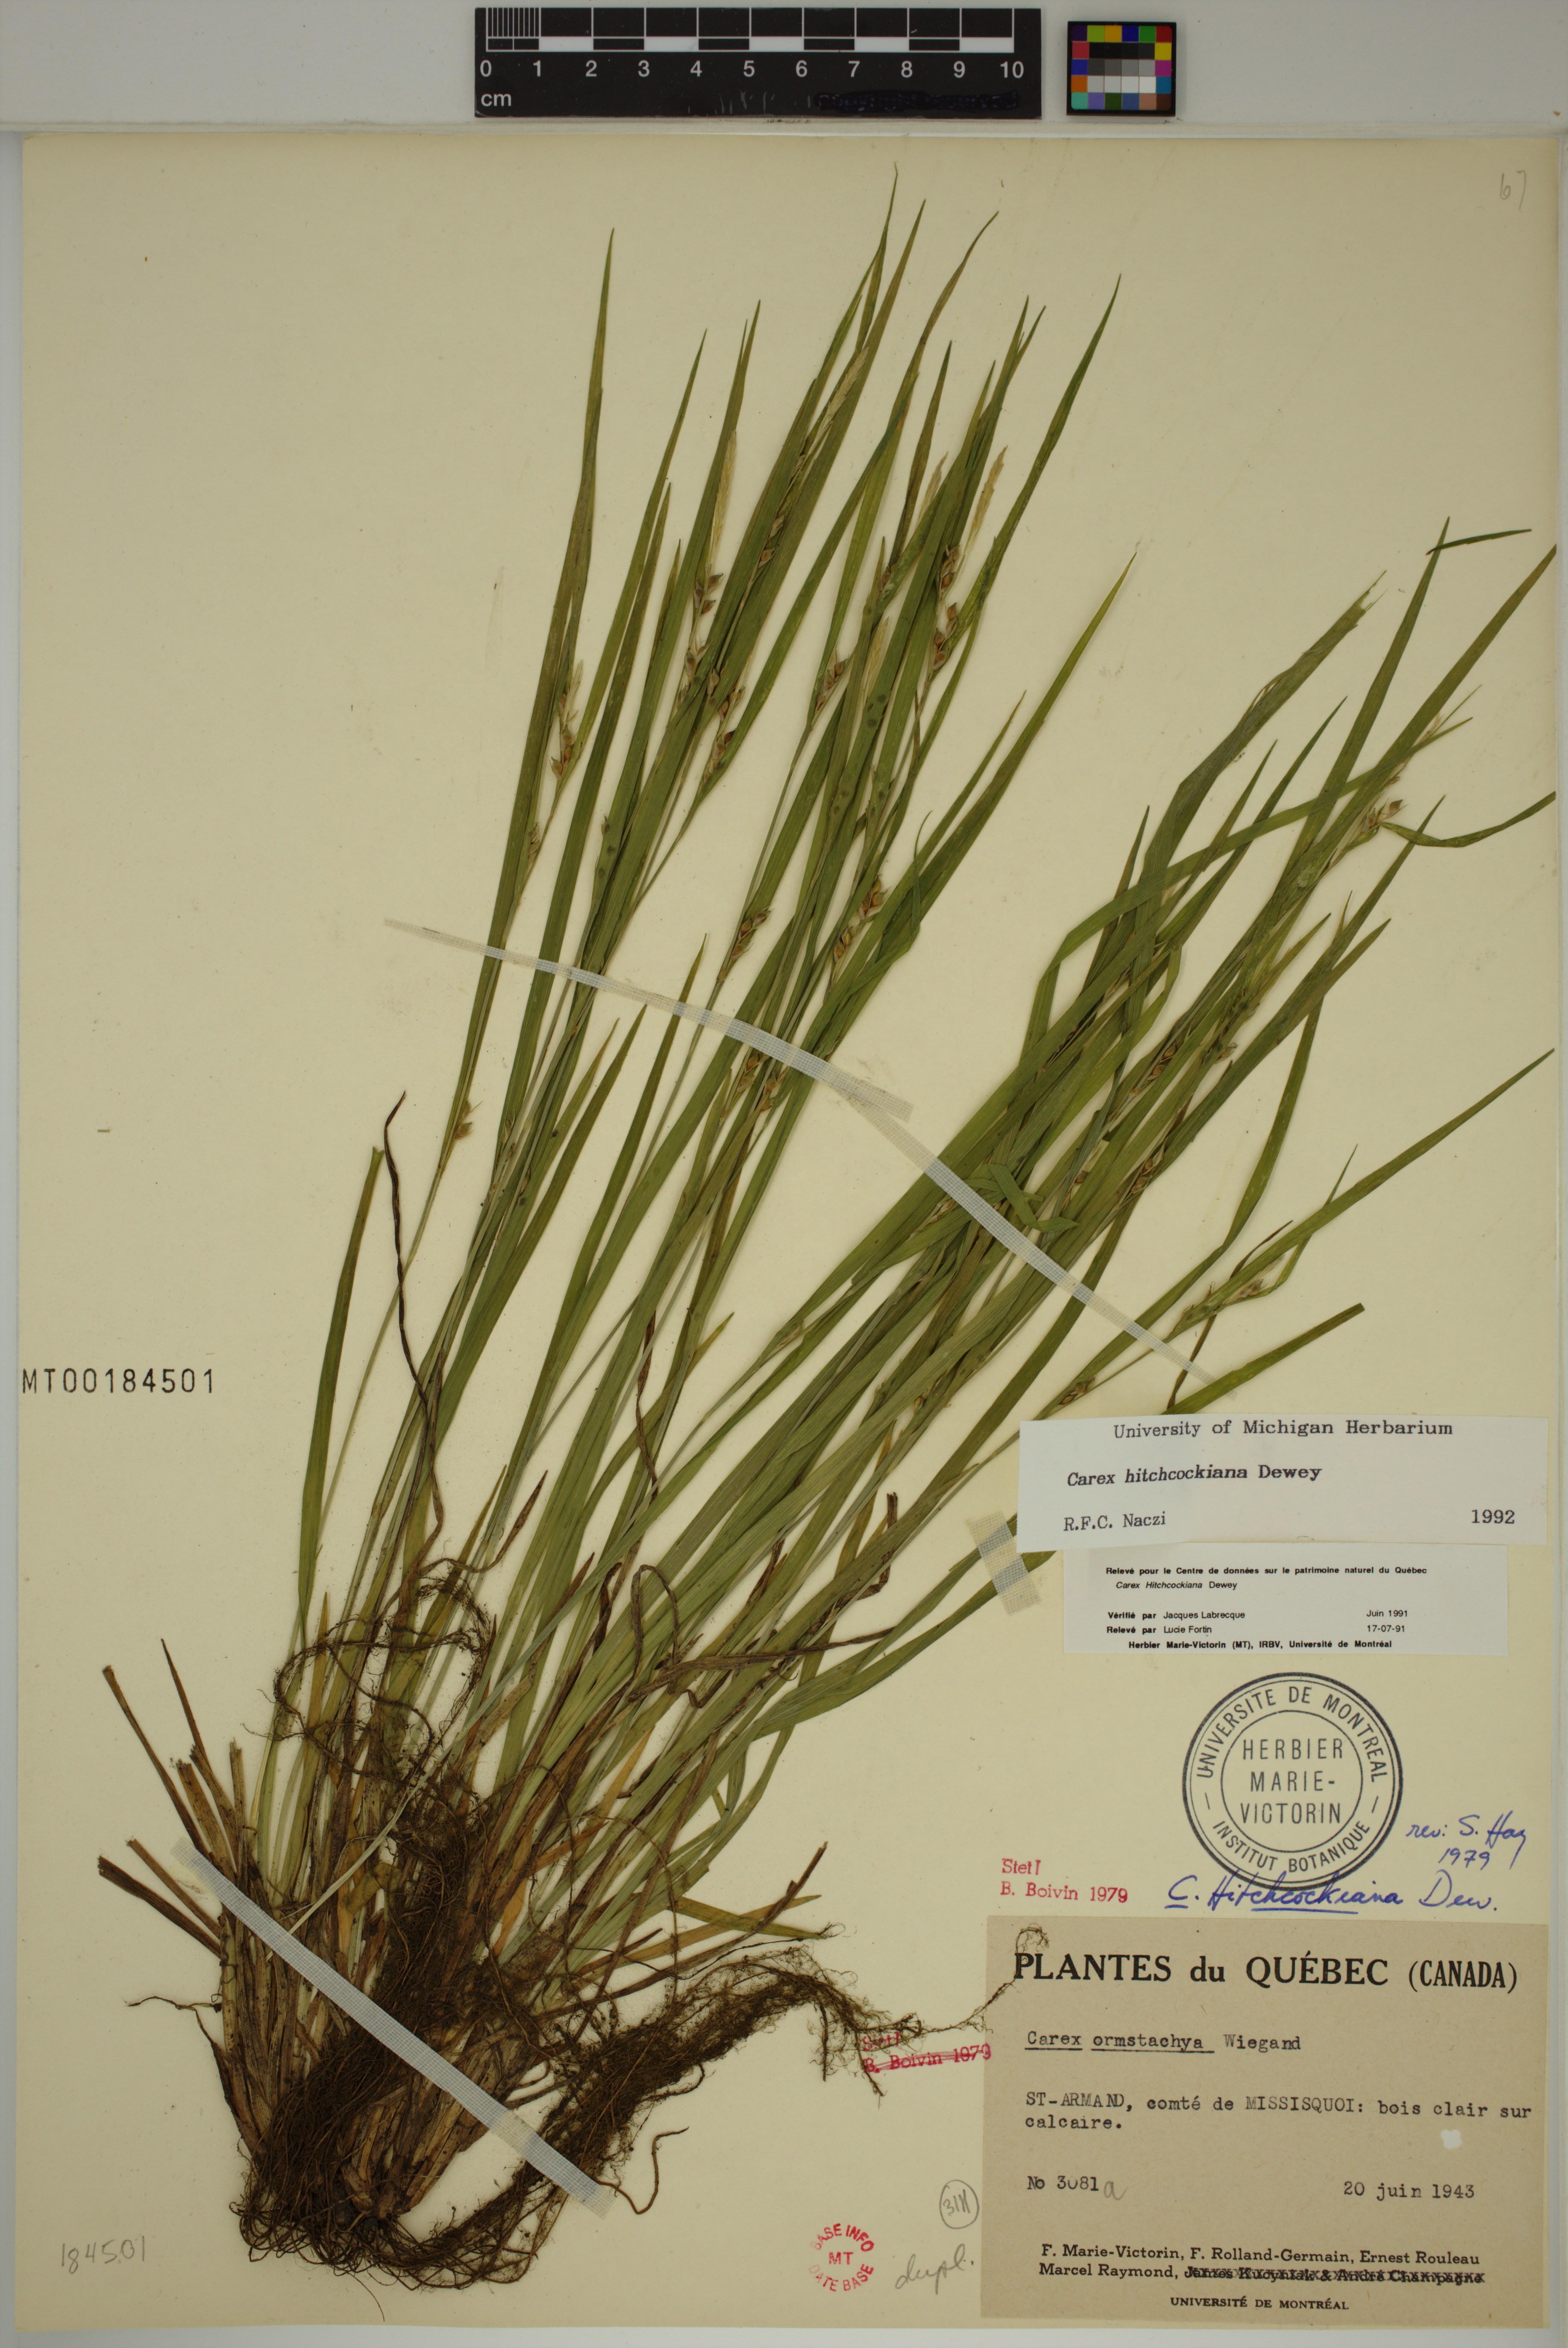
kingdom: Plantae
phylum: Tracheophyta
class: Liliopsida
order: Poales
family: Cyperaceae
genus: Carex
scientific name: Carex hitchcockiana
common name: Hairy grey sedge
